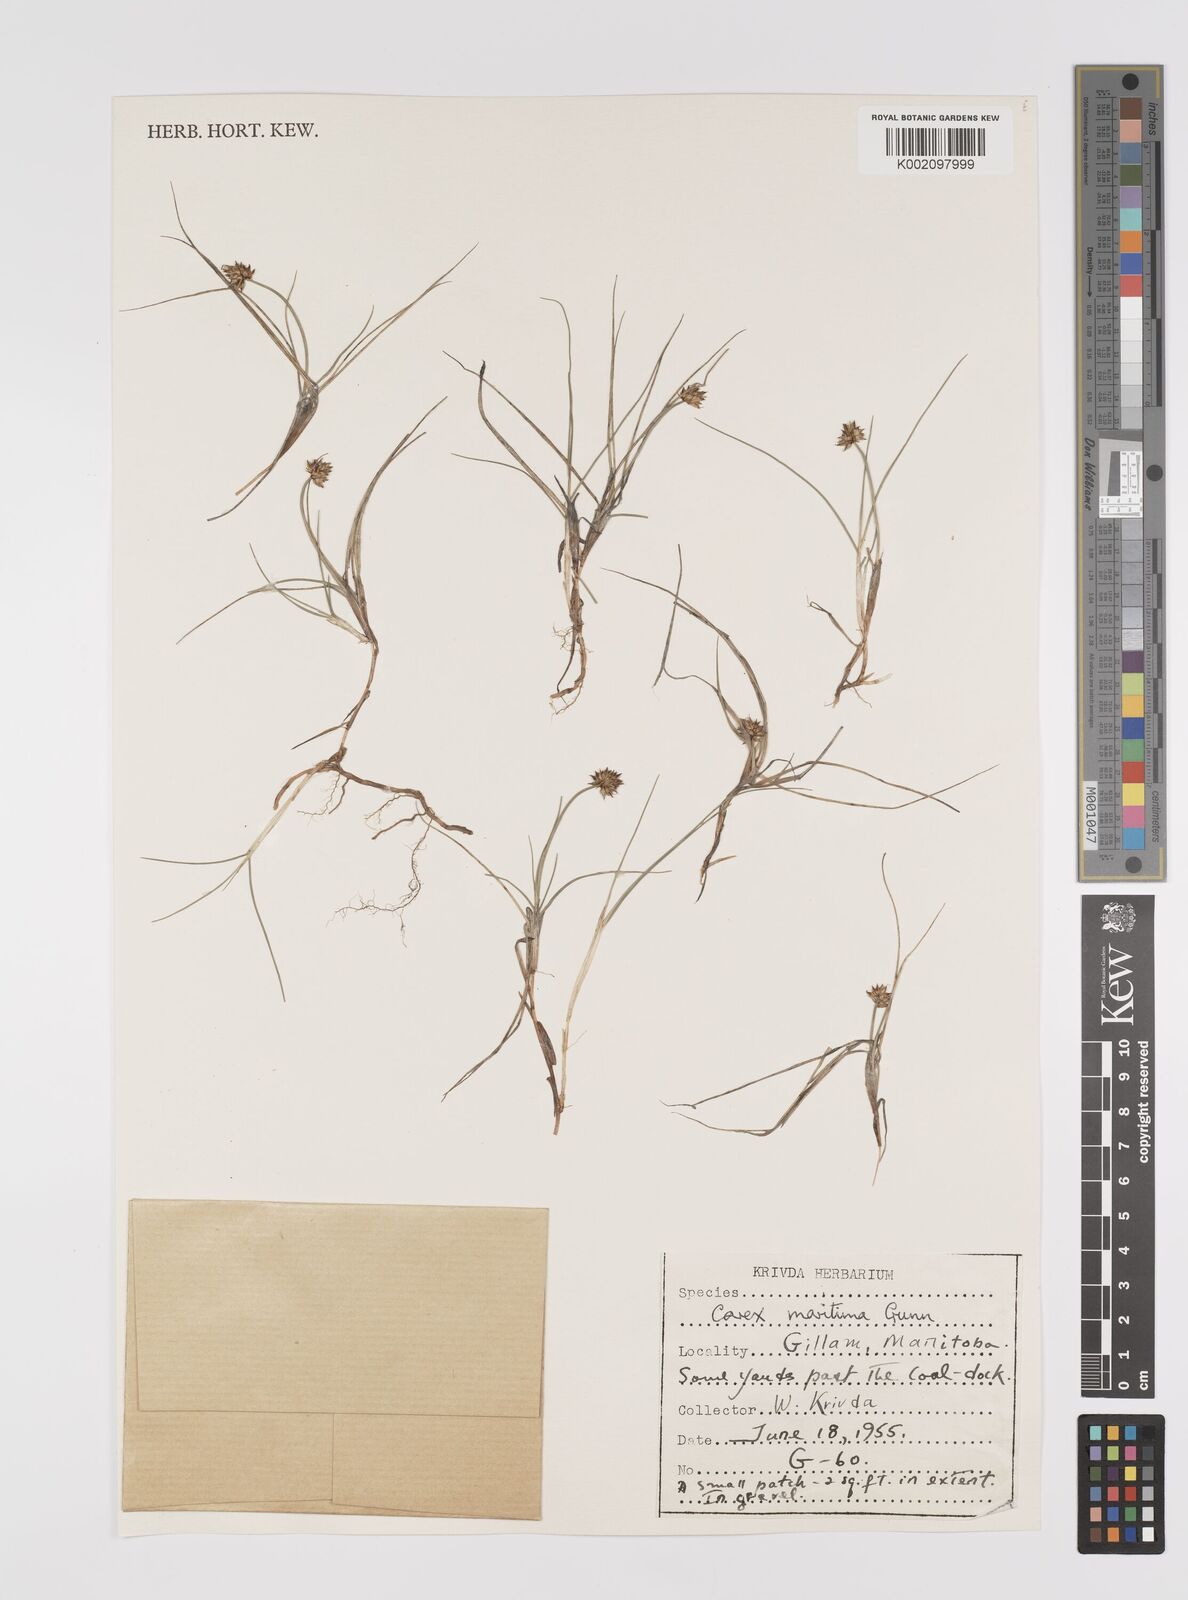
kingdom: Plantae
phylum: Tracheophyta
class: Liliopsida
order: Poales
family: Cyperaceae
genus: Carex
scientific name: Carex maritima
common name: Curved sedge
